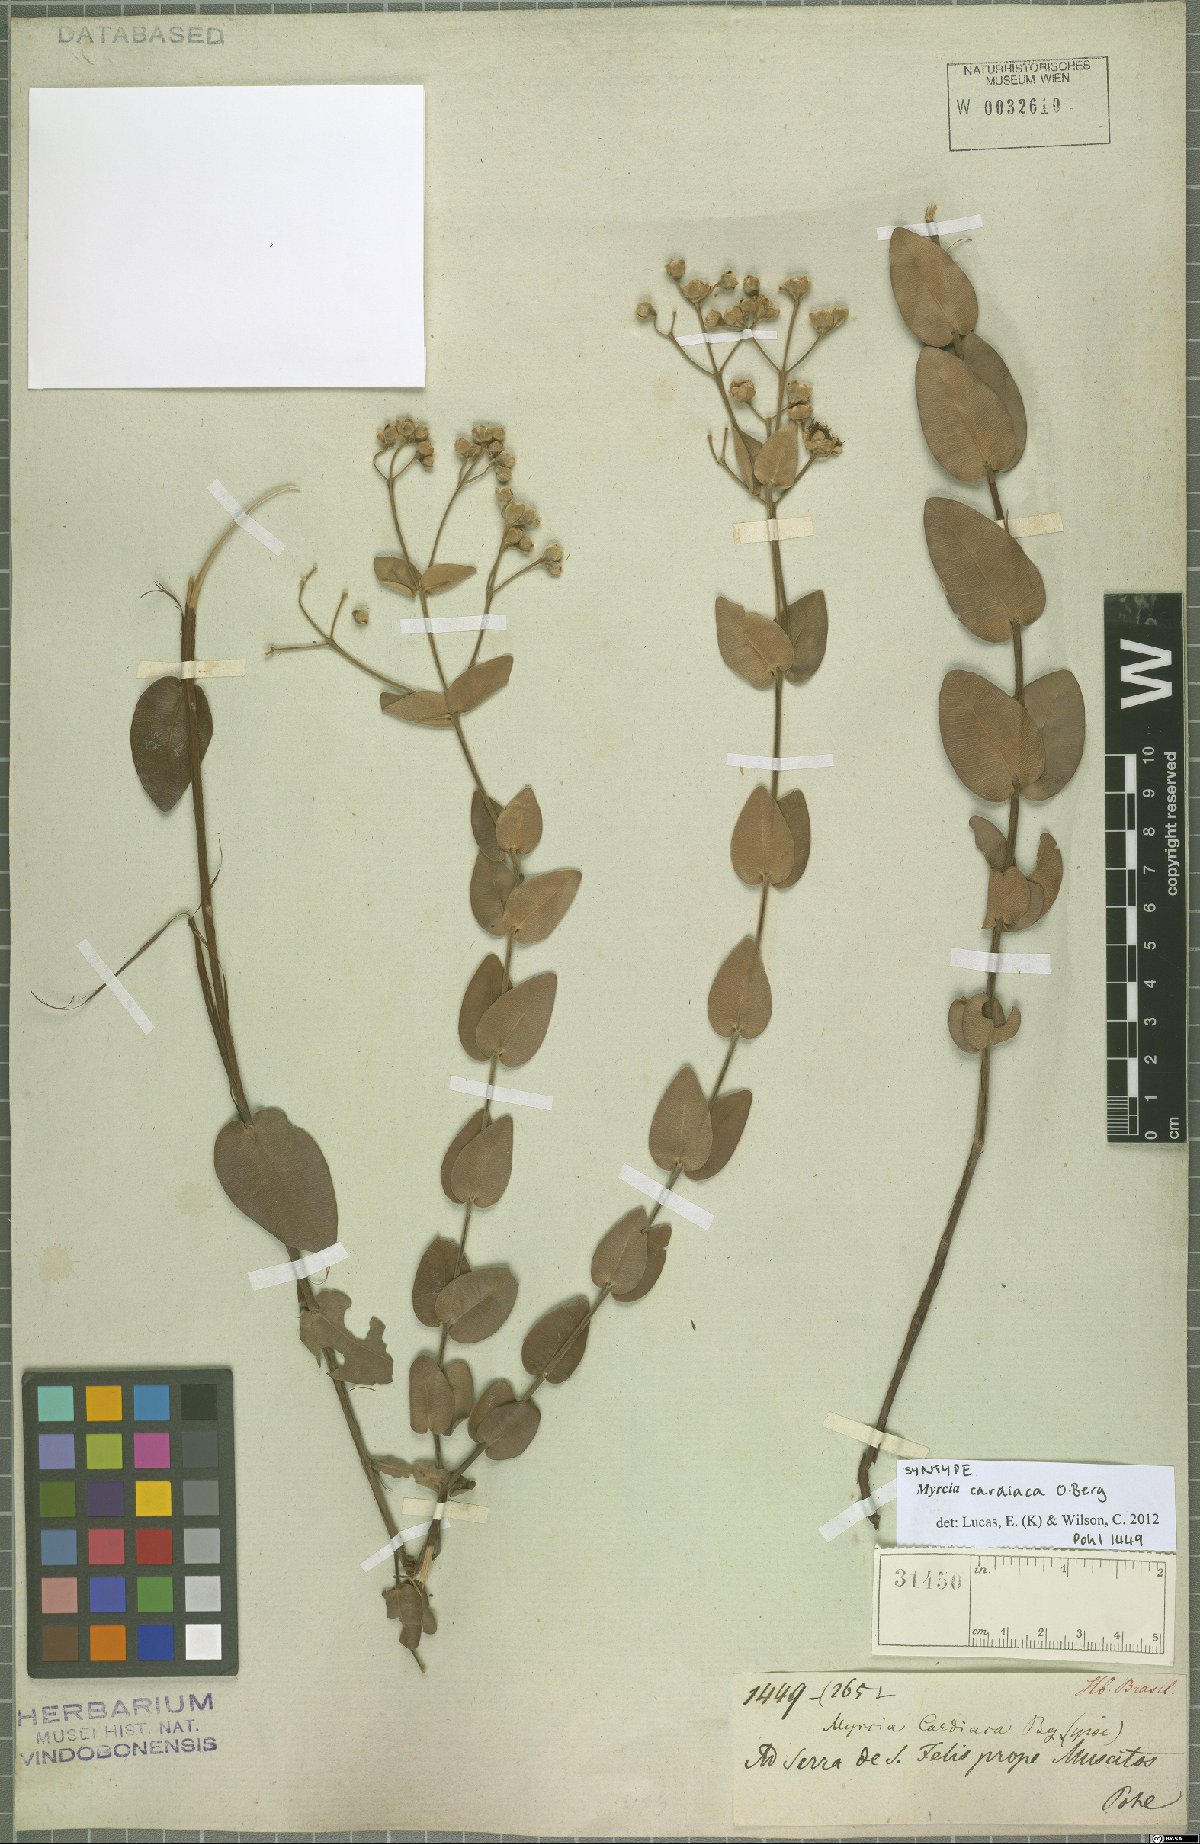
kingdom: Plantae
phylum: Tracheophyta
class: Magnoliopsida
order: Myrtales
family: Myrtaceae
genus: Myrcia
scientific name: Myrcia cardiaca
